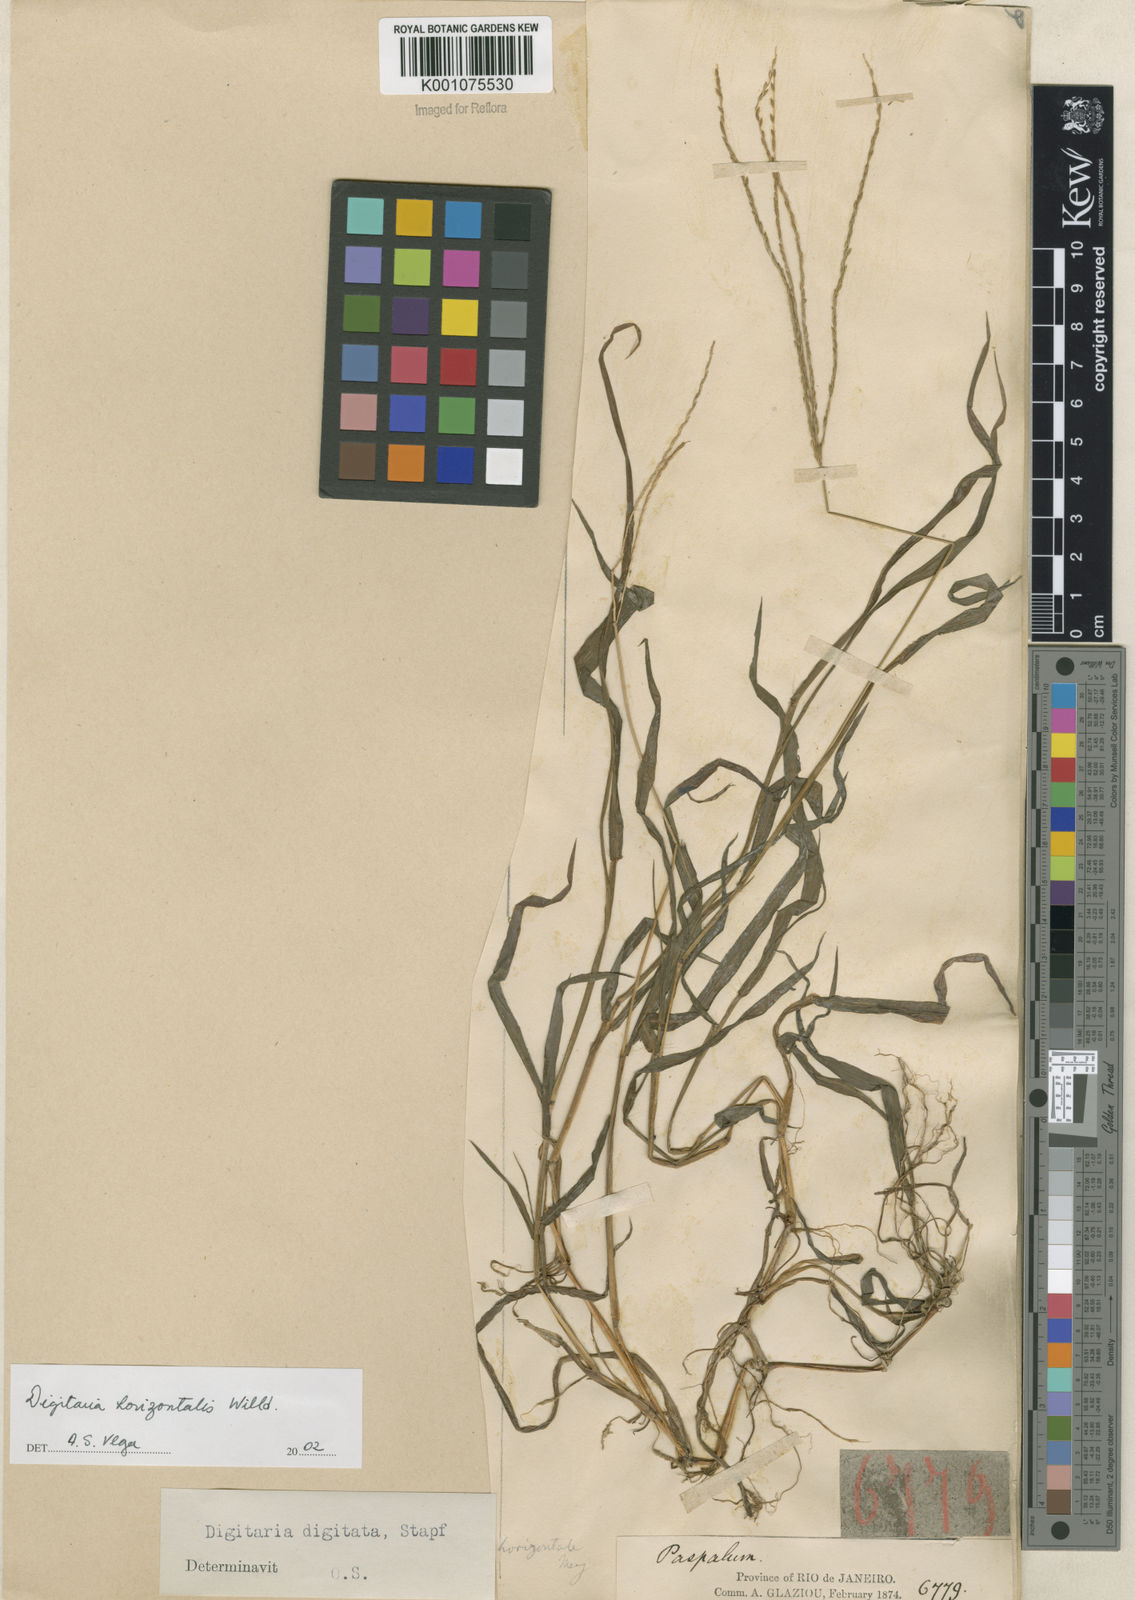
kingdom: Plantae
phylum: Tracheophyta
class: Liliopsida
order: Poales
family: Poaceae
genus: Digitaria
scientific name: Digitaria horizontalis
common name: Jamaican crabgrass
